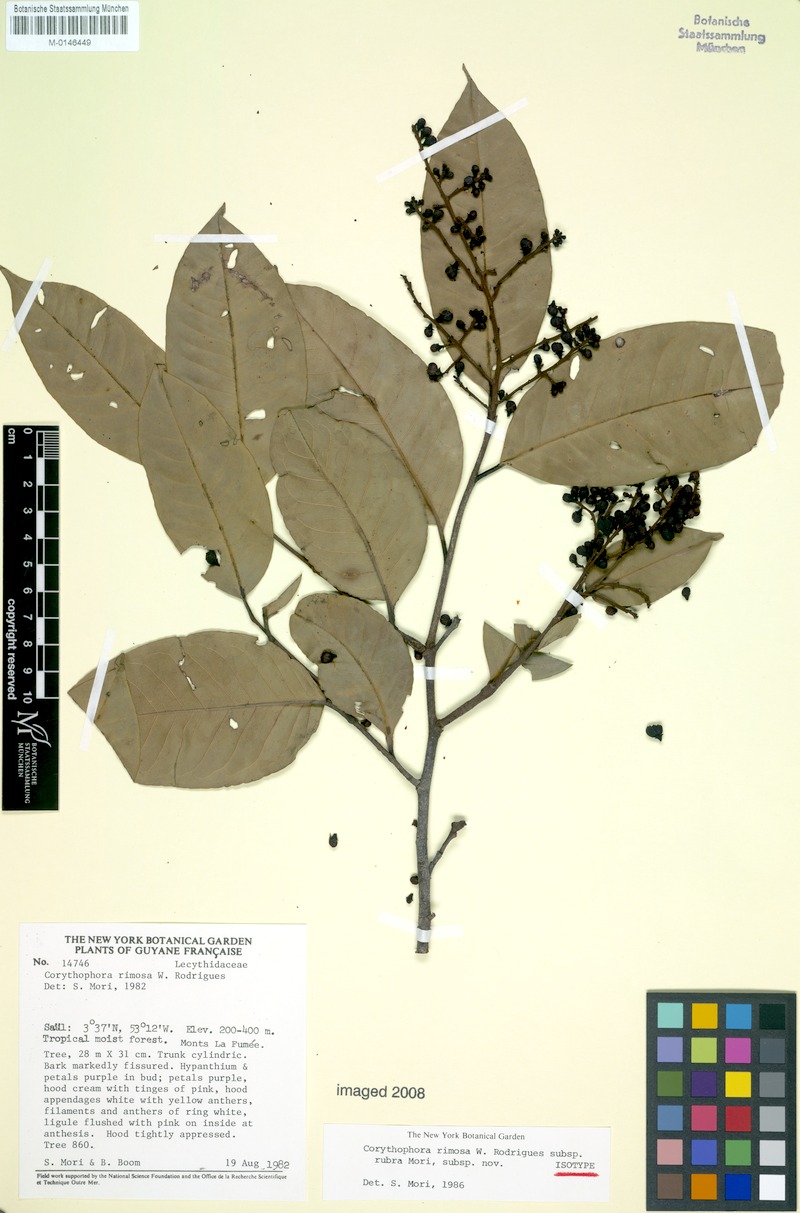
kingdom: Plantae
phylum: Tracheophyta
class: Magnoliopsida
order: Ericales
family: Lecythidaceae
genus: Corythophora
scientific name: Corythophora rimosa
